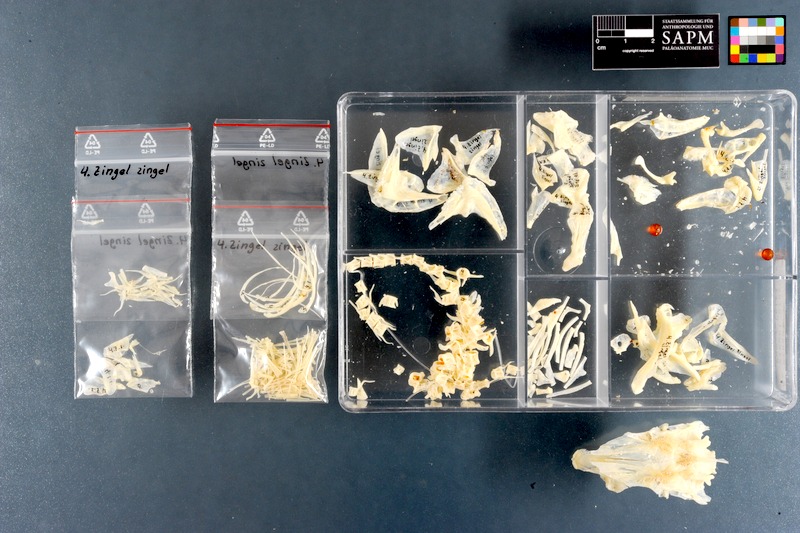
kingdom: Animalia
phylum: Chordata
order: Perciformes
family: Percidae
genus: Zingel
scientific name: Zingel zingel
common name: Zingel
